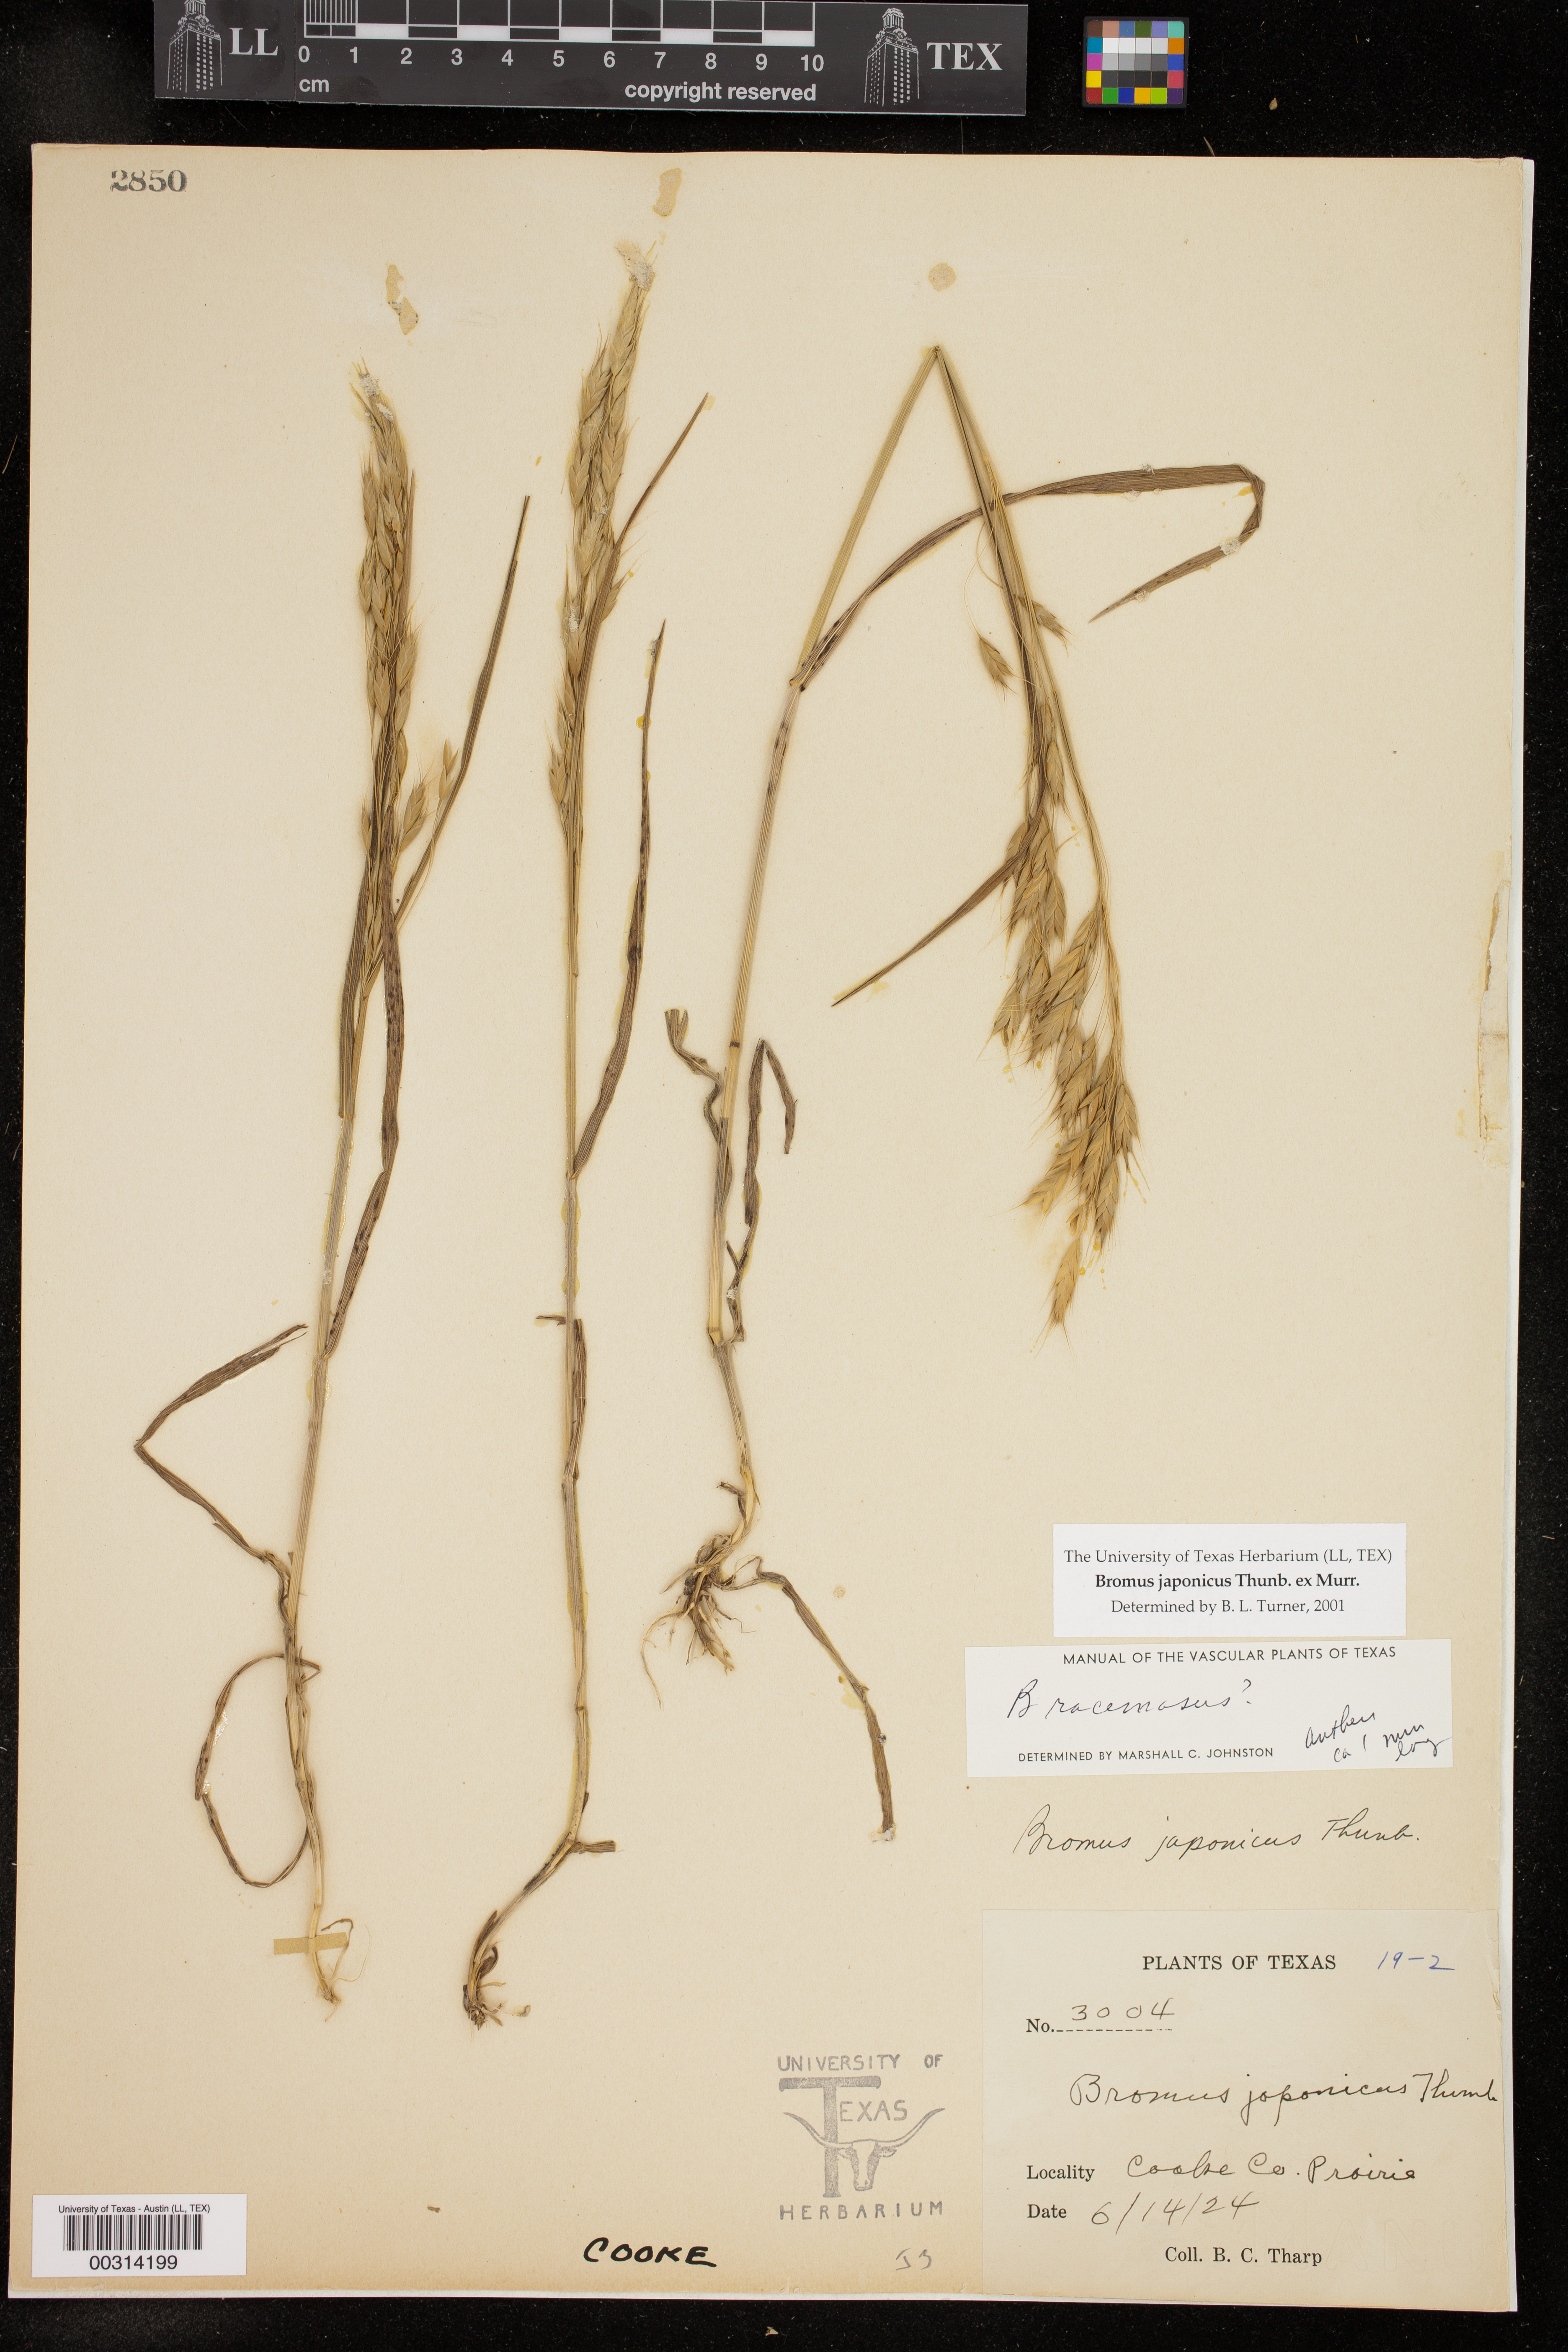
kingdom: Plantae
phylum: Tracheophyta
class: Liliopsida
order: Poales
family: Poaceae
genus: Bromus
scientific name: Bromus japonicus
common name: Japanese brome
